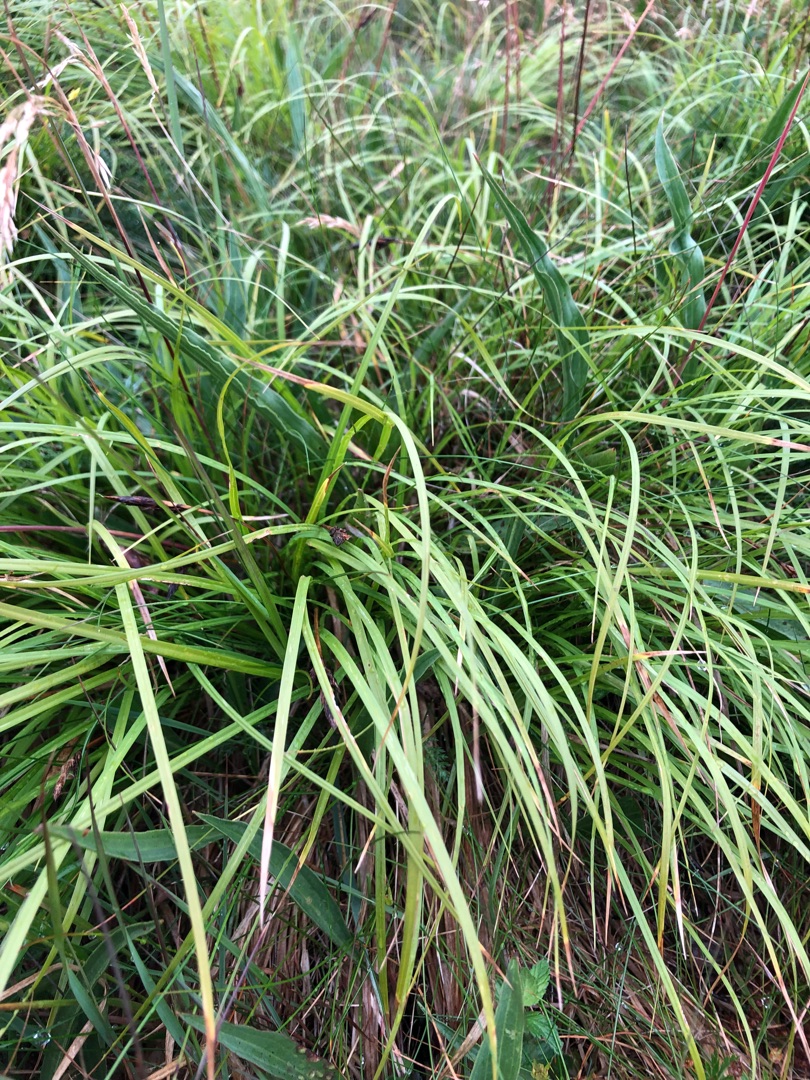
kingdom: Plantae
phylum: Tracheophyta
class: Liliopsida
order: Poales
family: Cyperaceae
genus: Carex
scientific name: Carex montana
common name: Bakke-star
